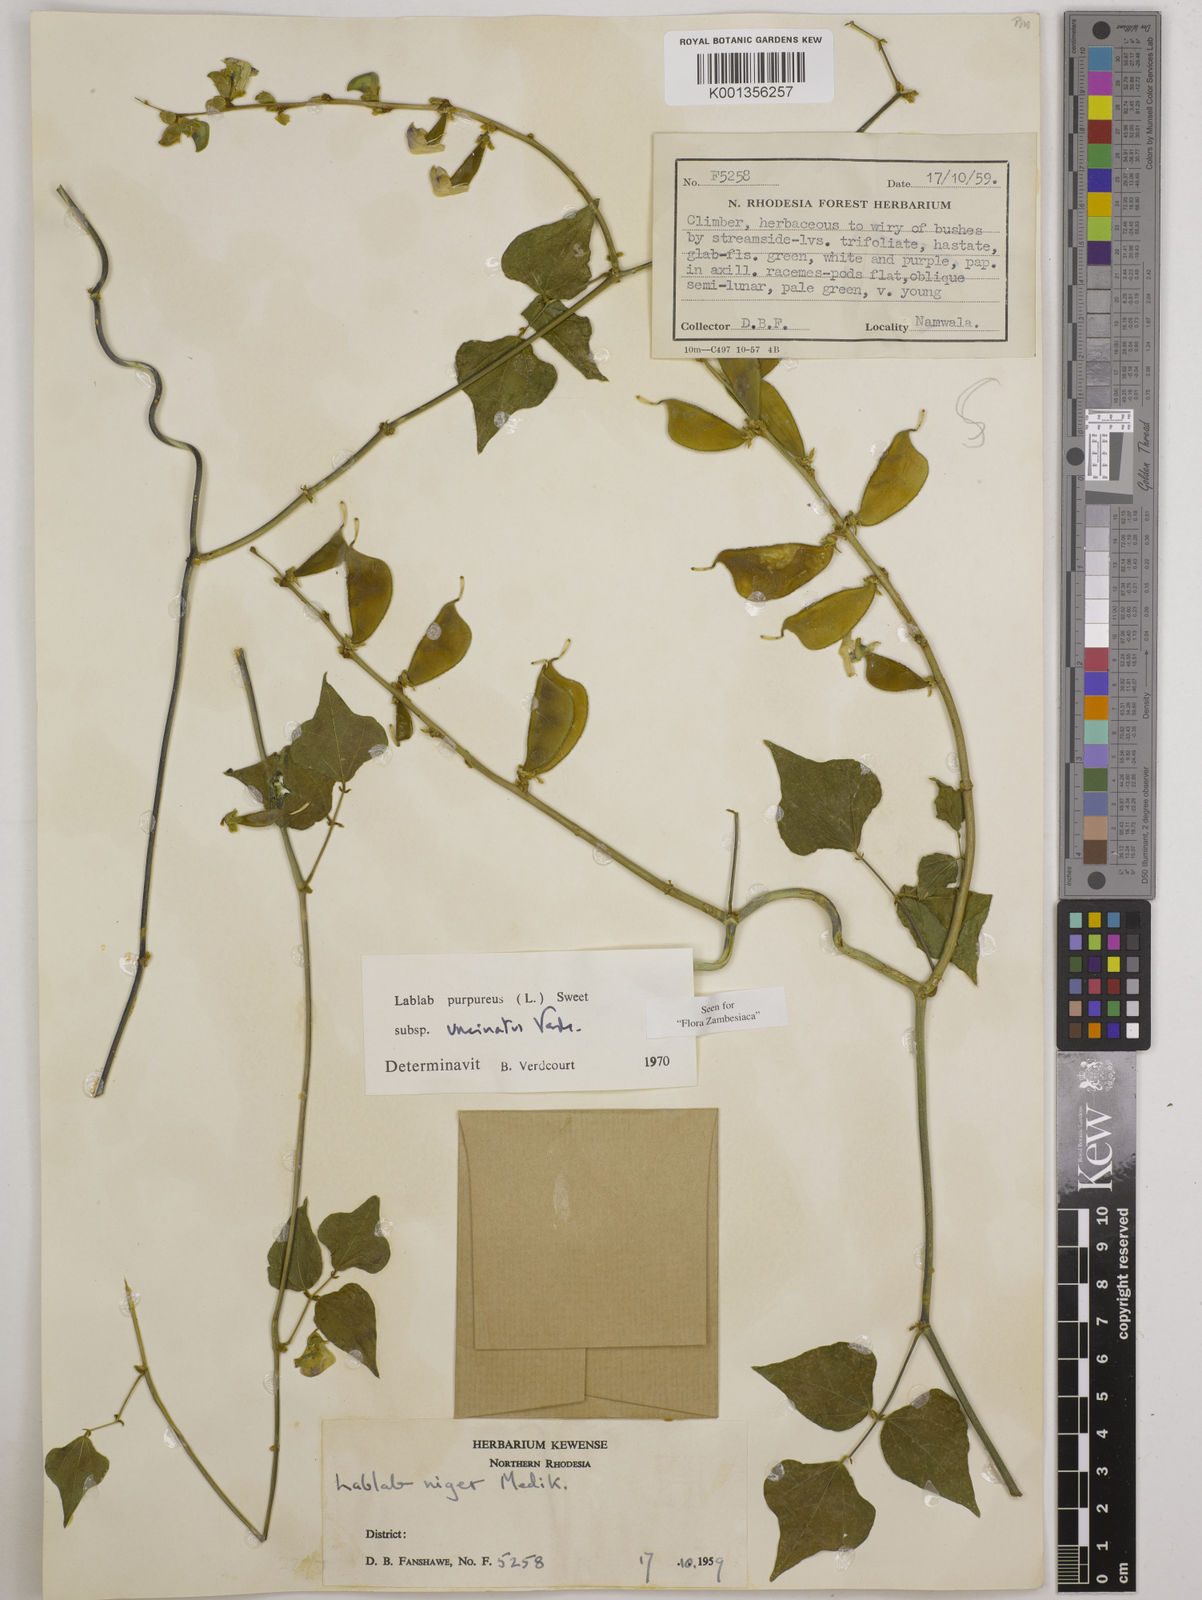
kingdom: Plantae
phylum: Tracheophyta
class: Magnoliopsida
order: Fabales
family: Fabaceae
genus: Lablab
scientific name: Lablab purpureus
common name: Lablab-bean
